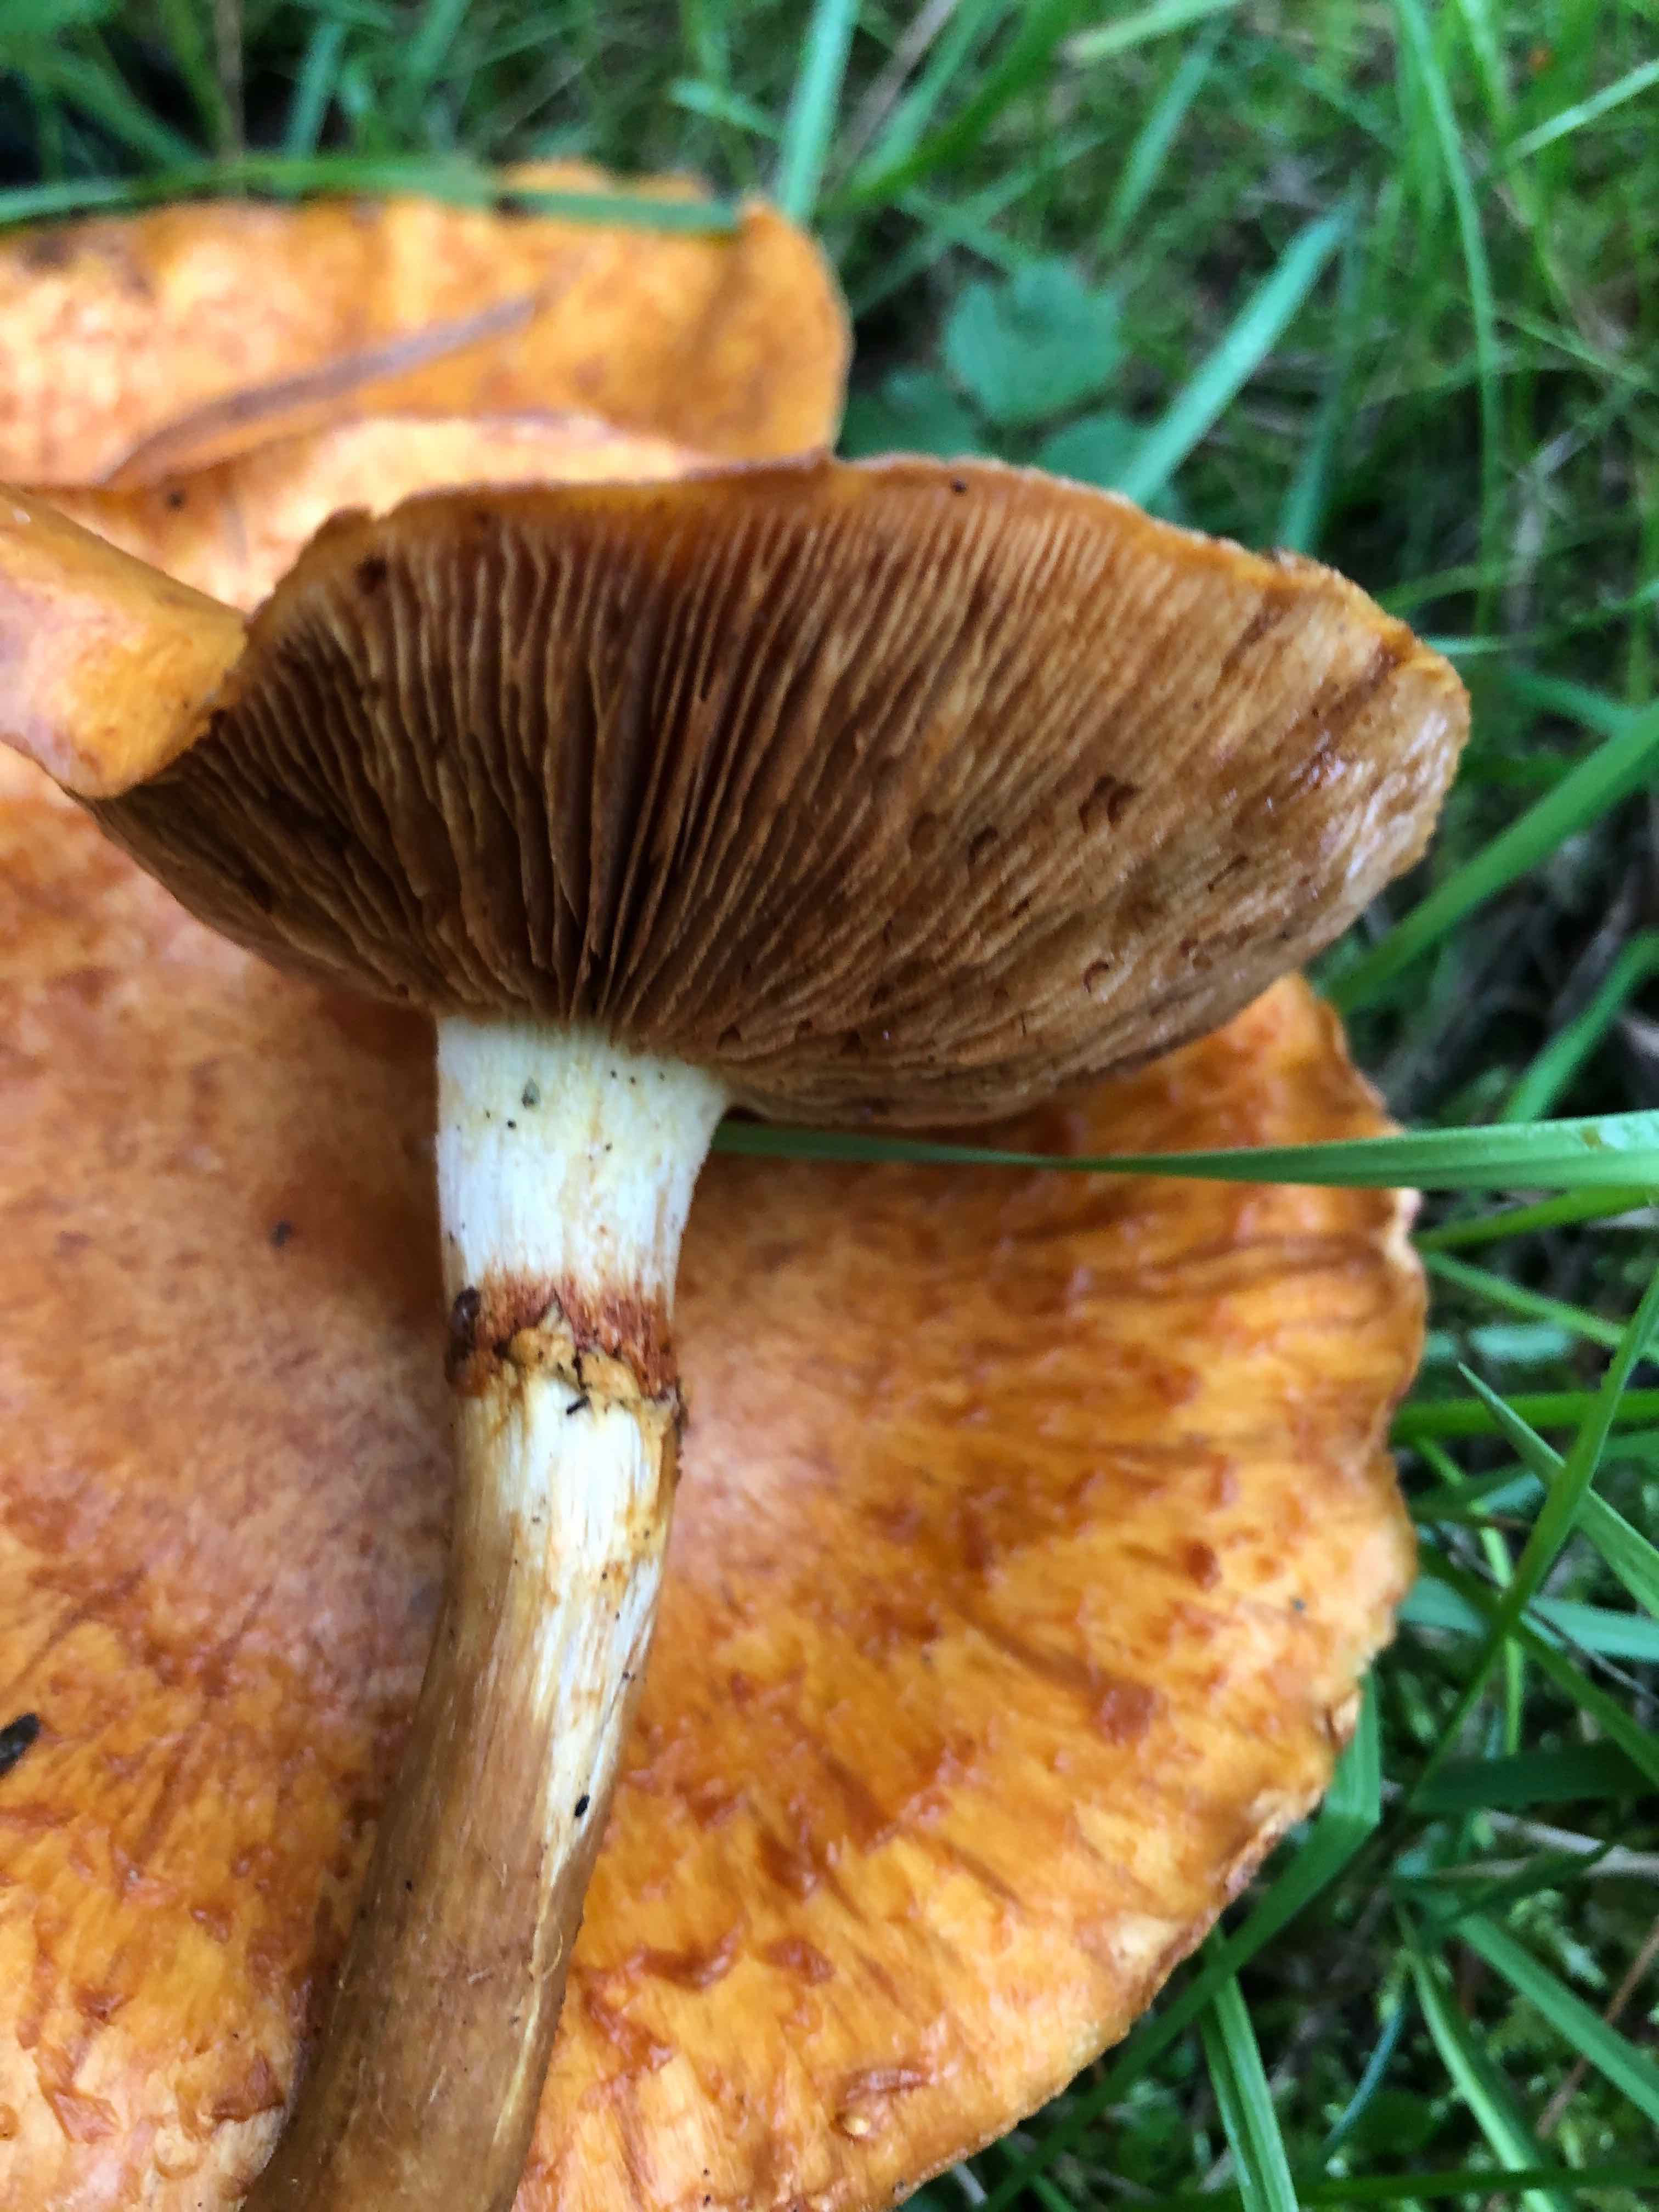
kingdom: Fungi
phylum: Basidiomycota
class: Agaricomycetes
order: Agaricales
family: Hymenogastraceae
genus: Gymnopilus
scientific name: Gymnopilus spectabilis
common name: fibret flammehat
